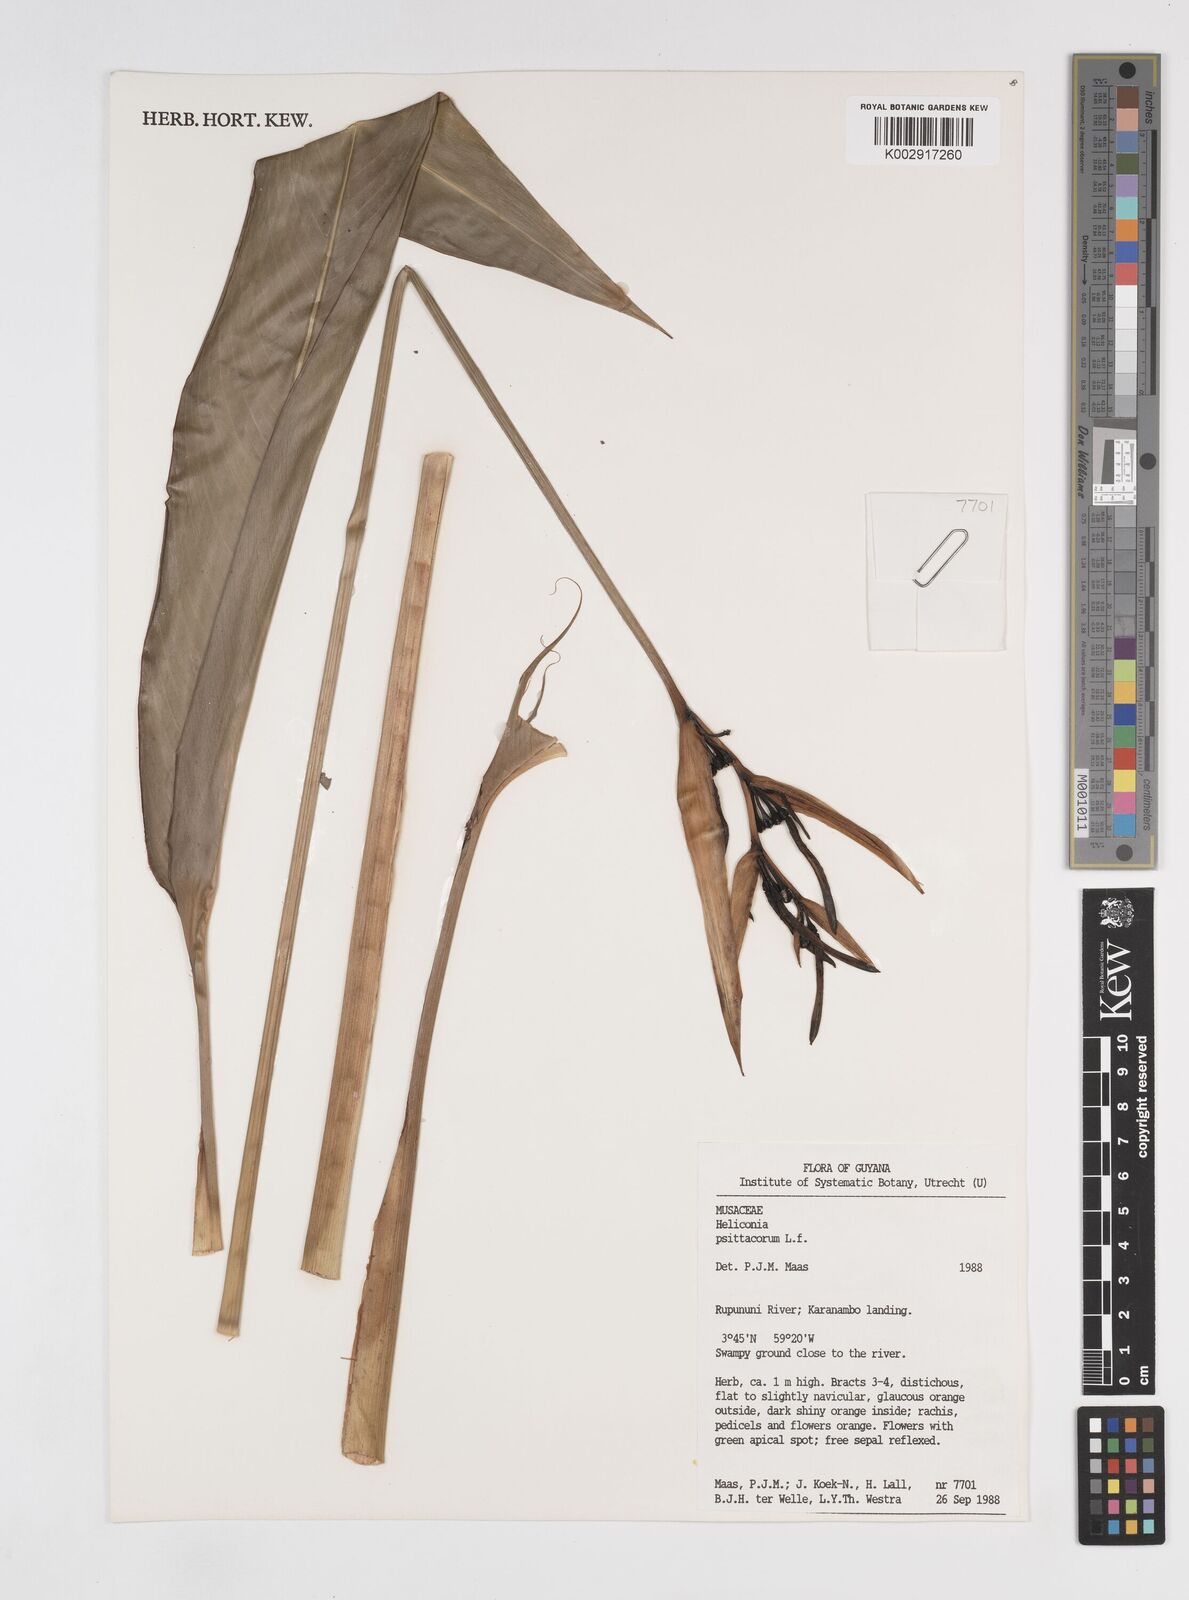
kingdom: Plantae
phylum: Tracheophyta
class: Liliopsida
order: Zingiberales
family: Heliconiaceae
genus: Heliconia
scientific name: Heliconia psittacorum
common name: Parrot's-flower
